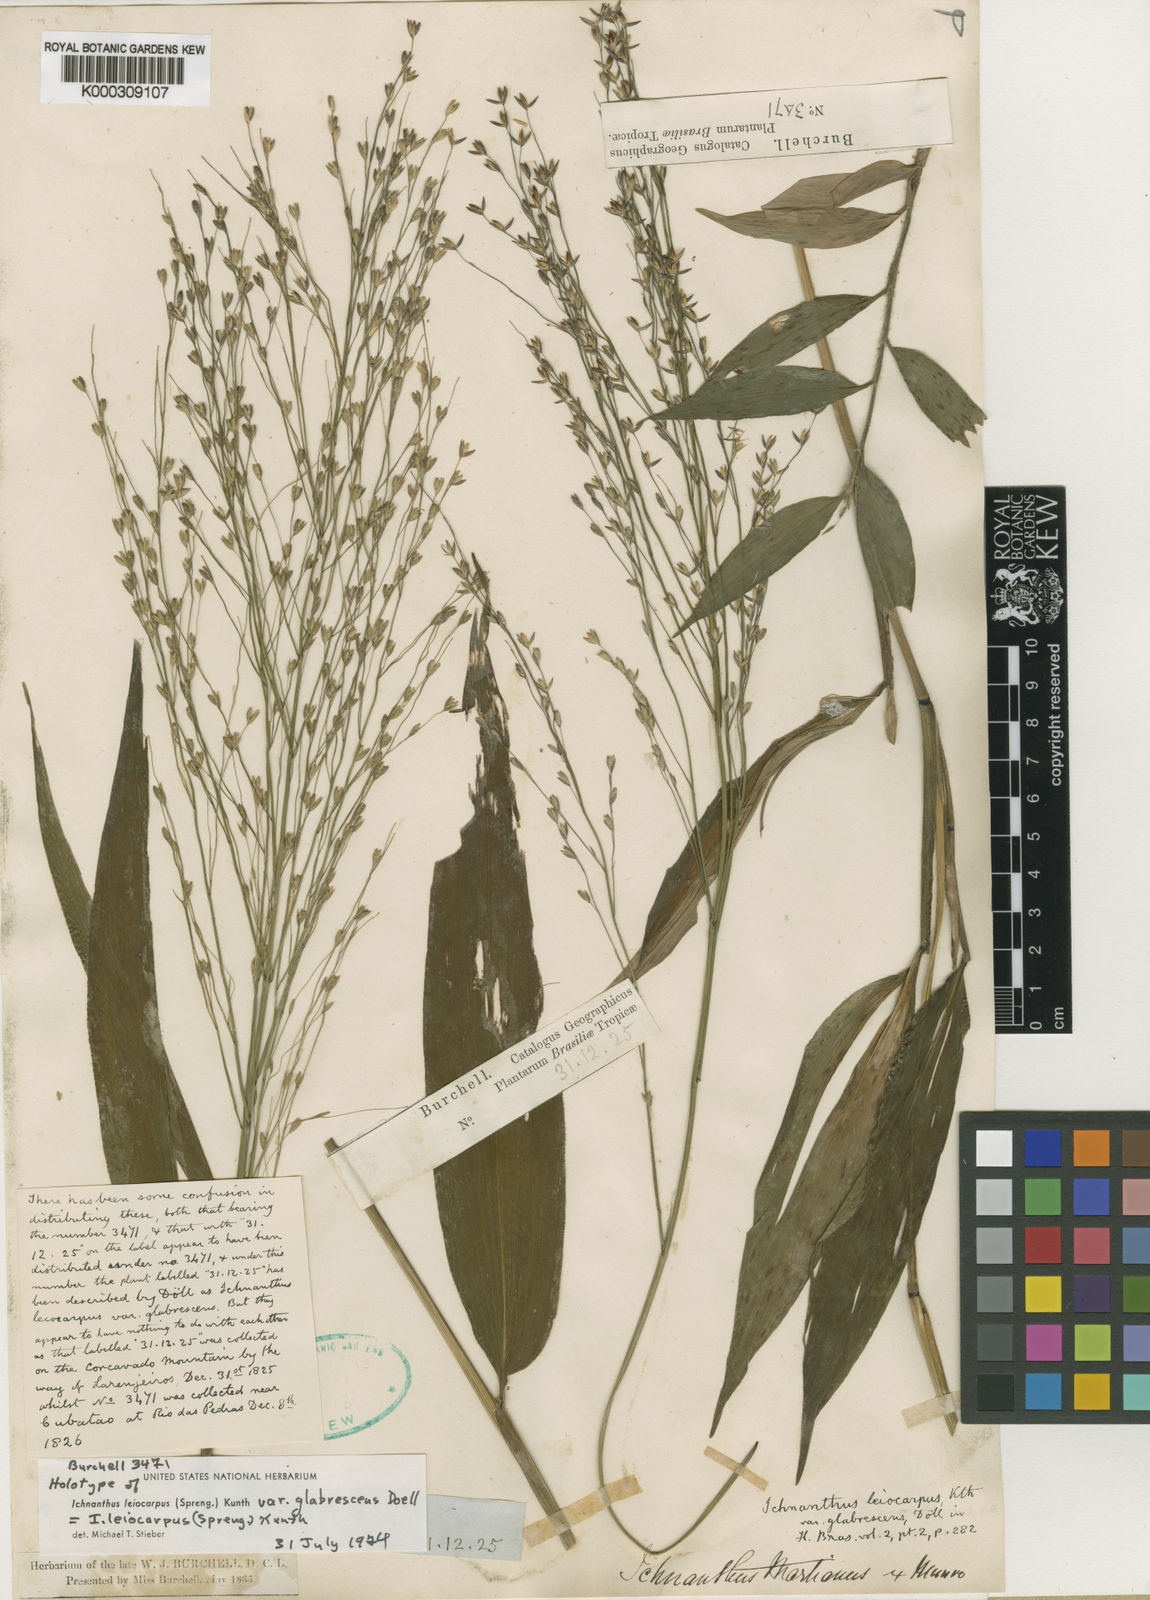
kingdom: Plantae
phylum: Tracheophyta
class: Liliopsida
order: Poales
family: Poaceae
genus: Ichnanthus
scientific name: Ichnanthus leiocarpus
